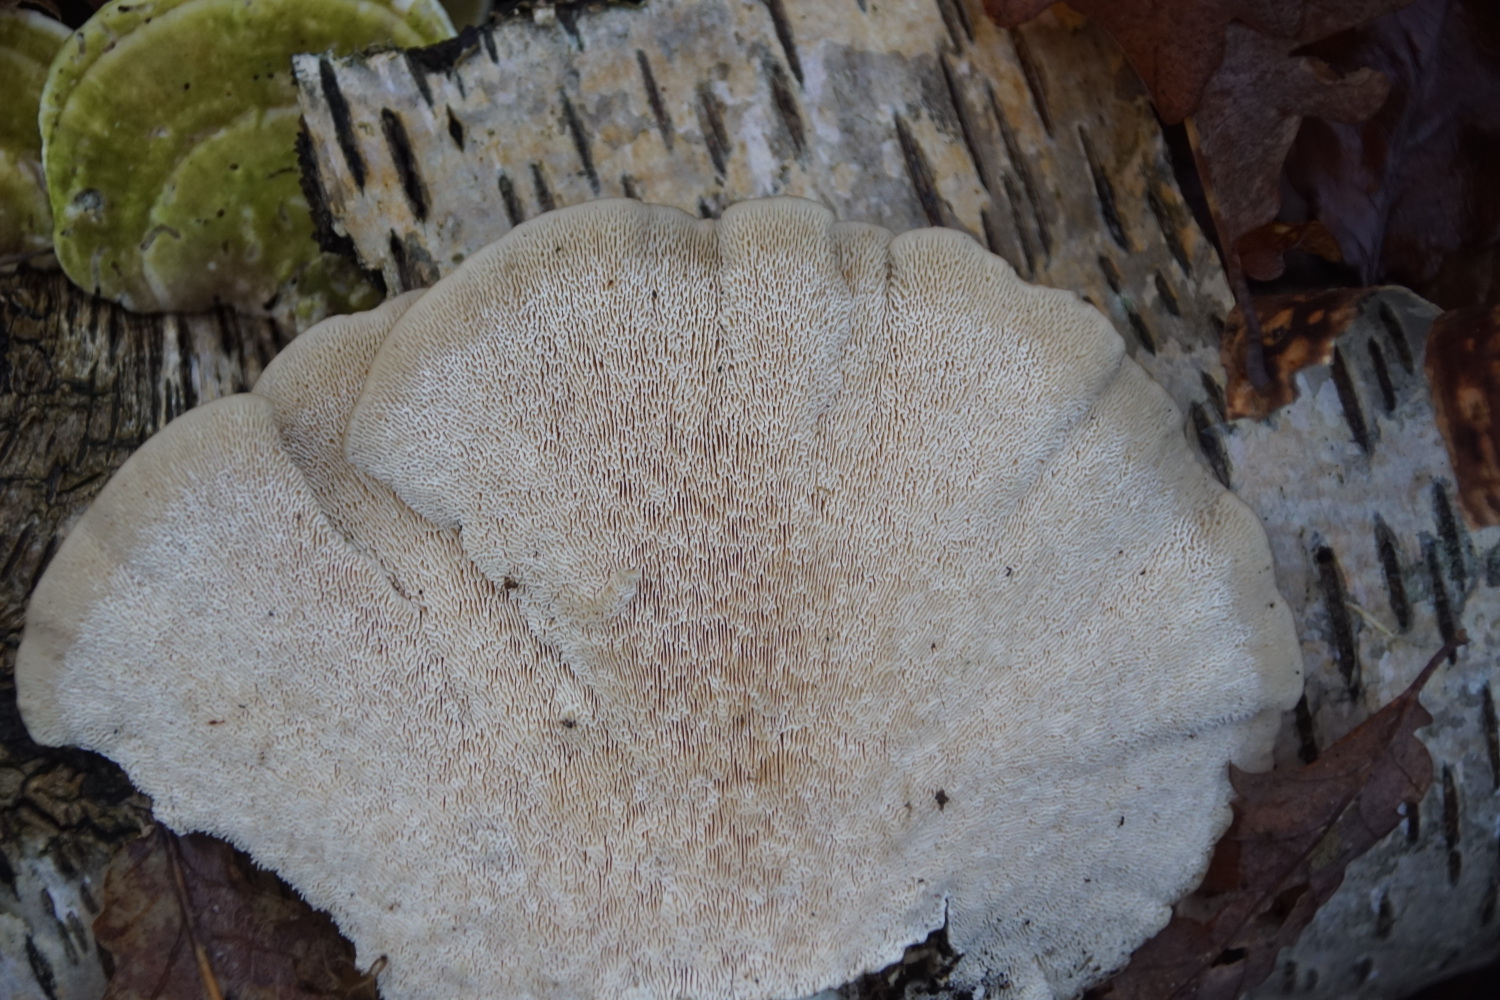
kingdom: Fungi
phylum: Basidiomycota
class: Agaricomycetes
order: Polyporales
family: Polyporaceae
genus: Trametes
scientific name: Trametes gibbosa
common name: puklet læderporesvamp
